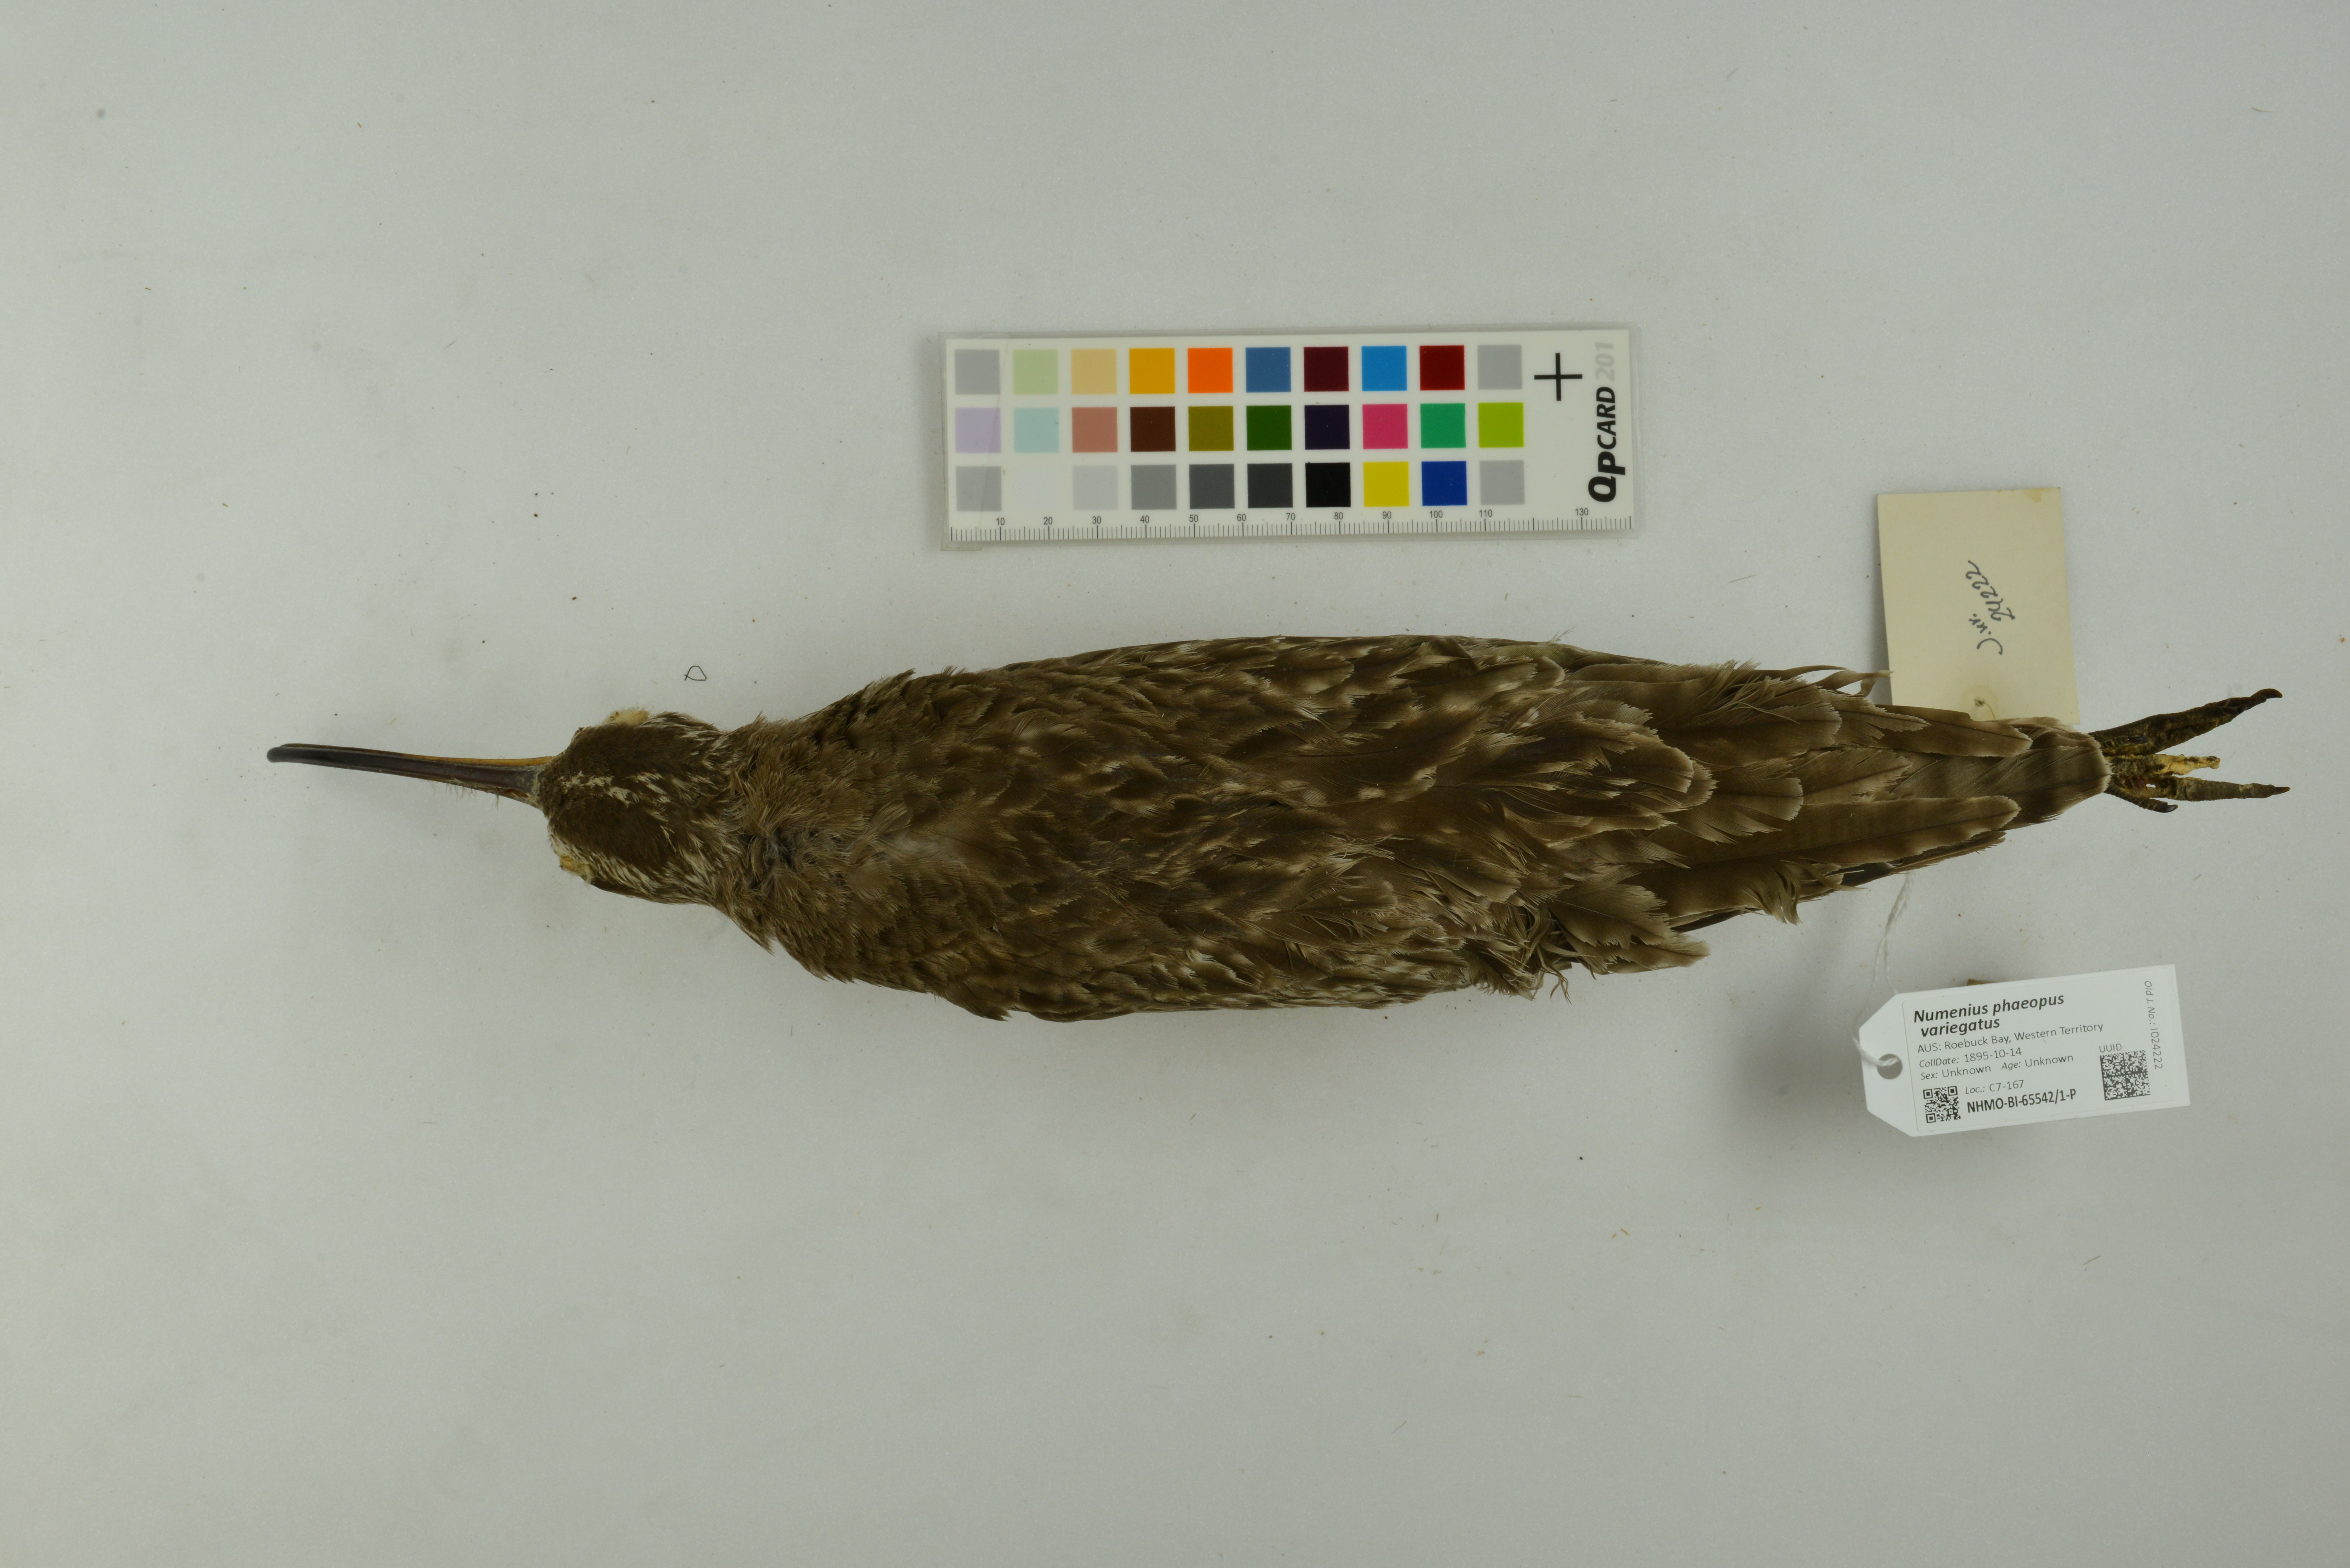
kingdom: Animalia
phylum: Chordata
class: Aves
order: Charadriiformes
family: Scolopacidae
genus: Numenius
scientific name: Numenius phaeopus
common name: Whimbrel
